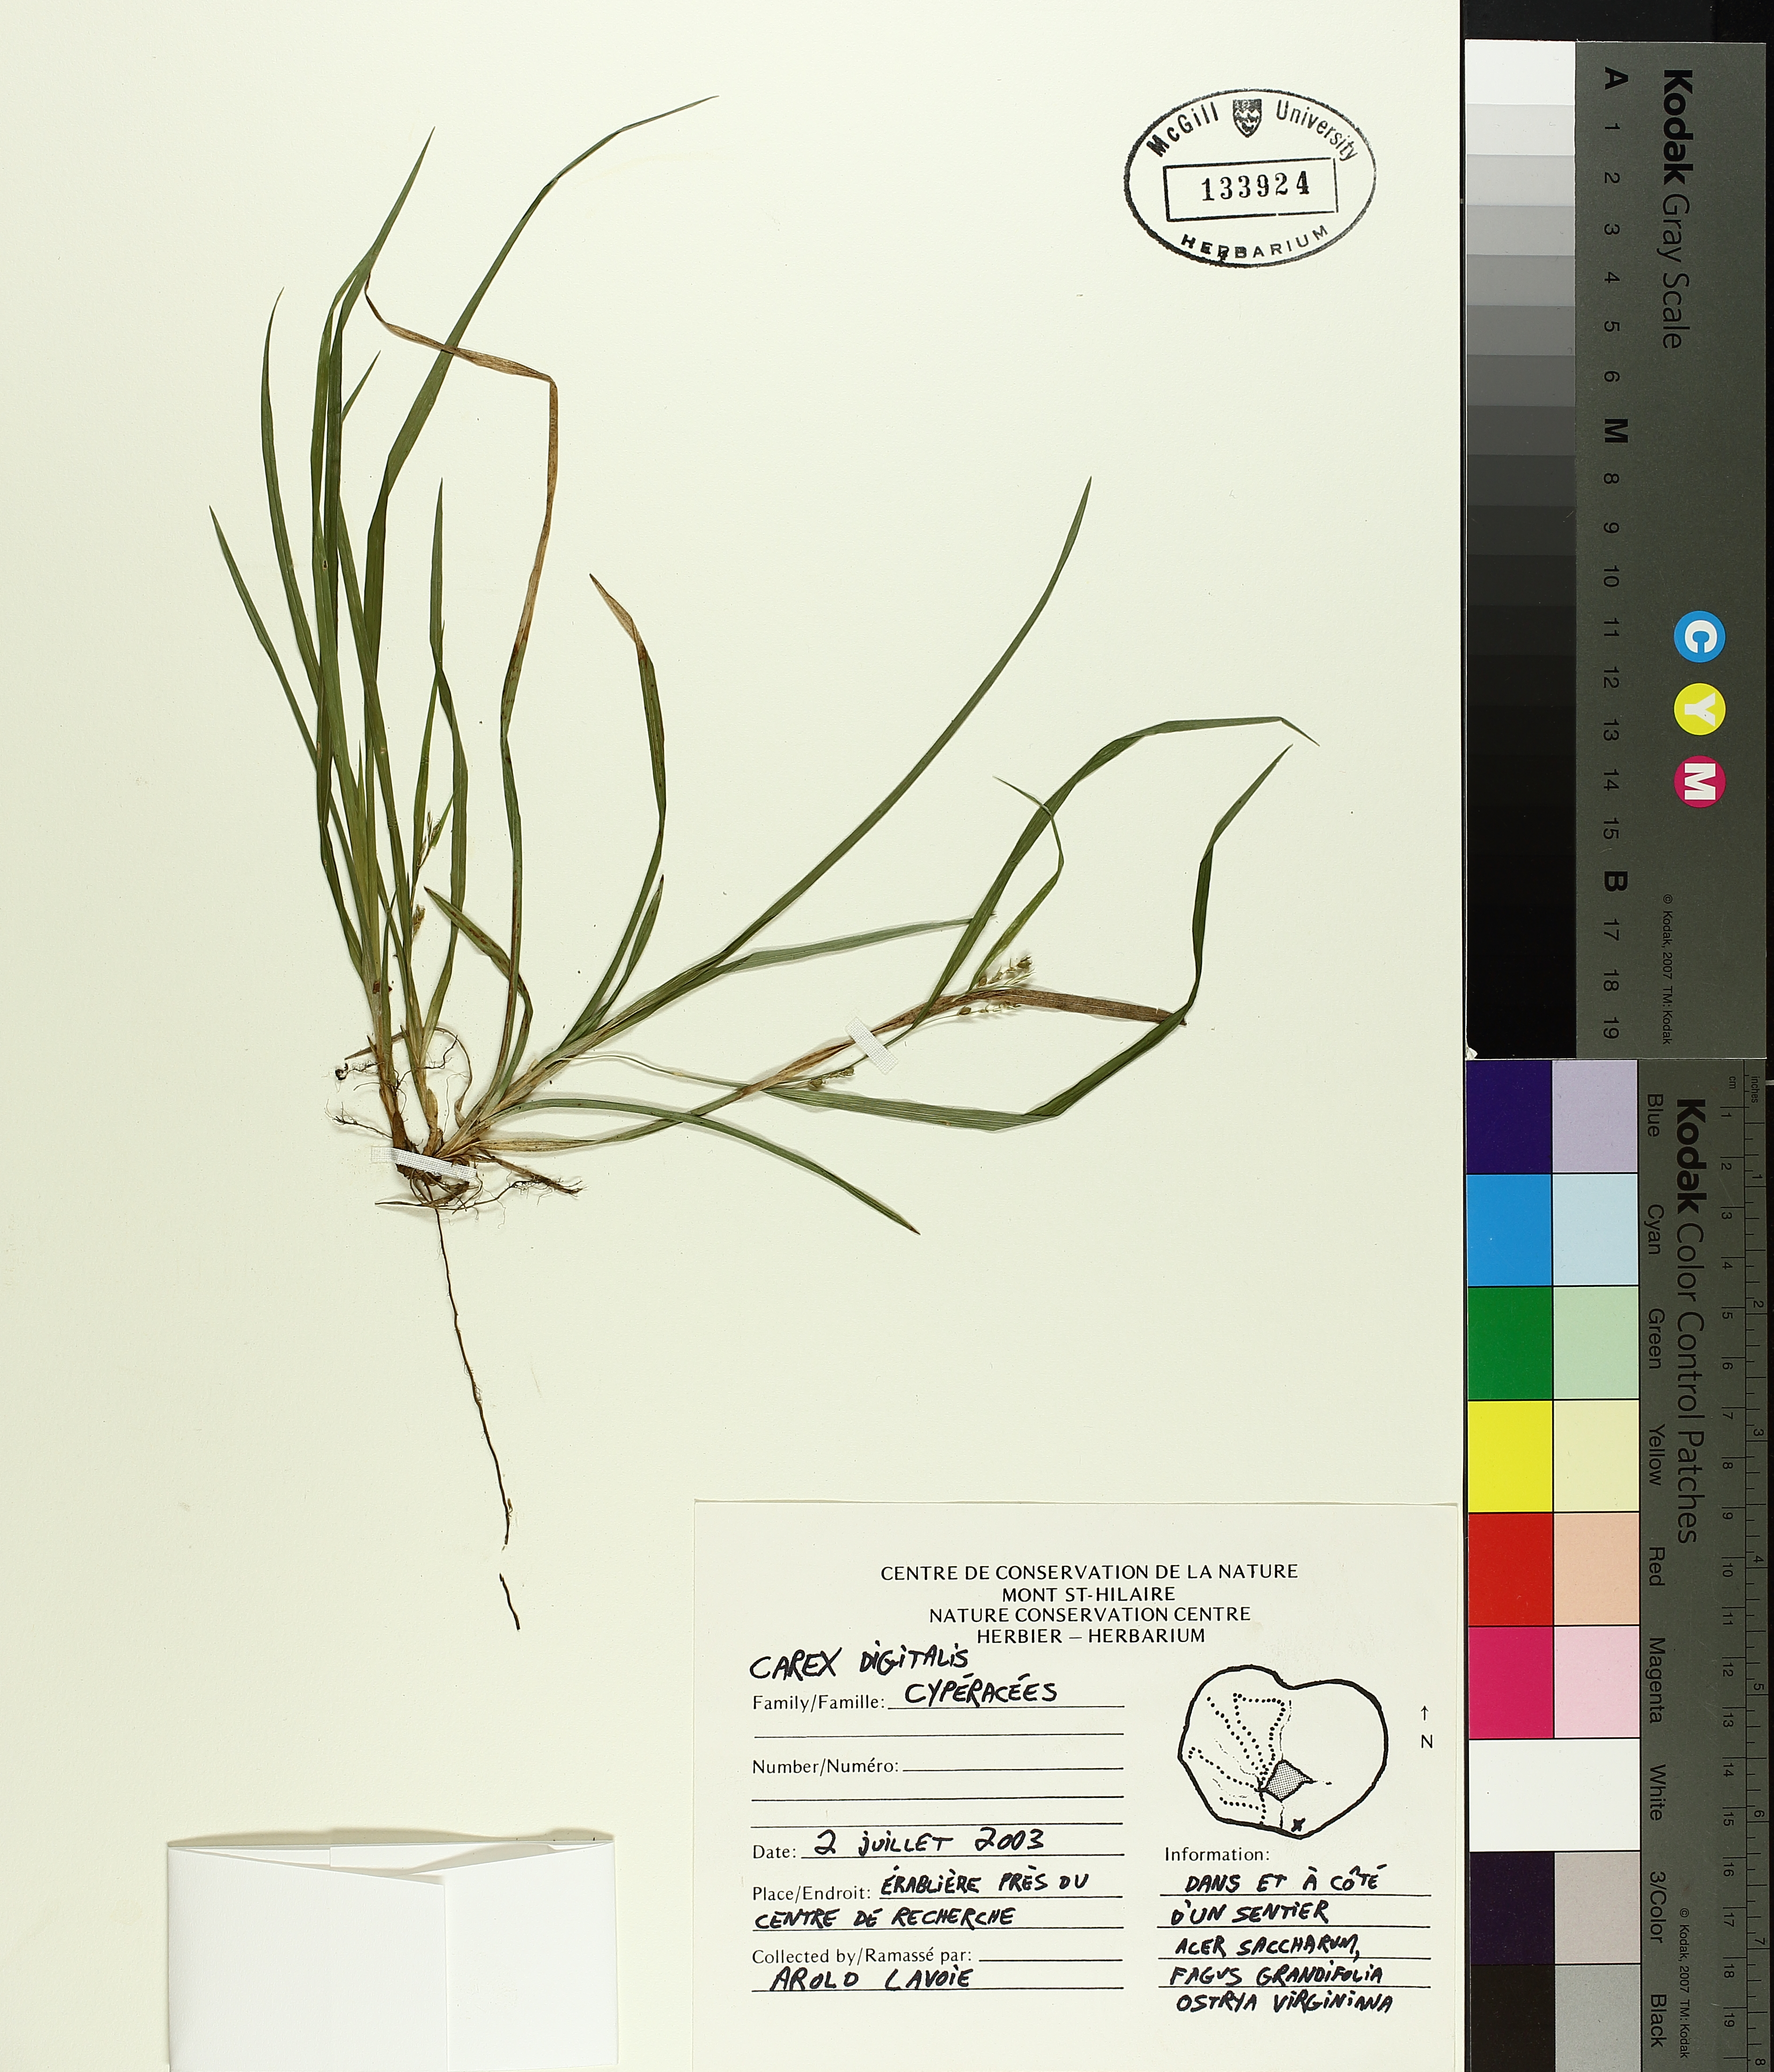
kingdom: Plantae
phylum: Tracheophyta
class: Liliopsida
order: Poales
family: Cyperaceae
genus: Carex
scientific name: Carex digitalis
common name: Slender wood sedge
